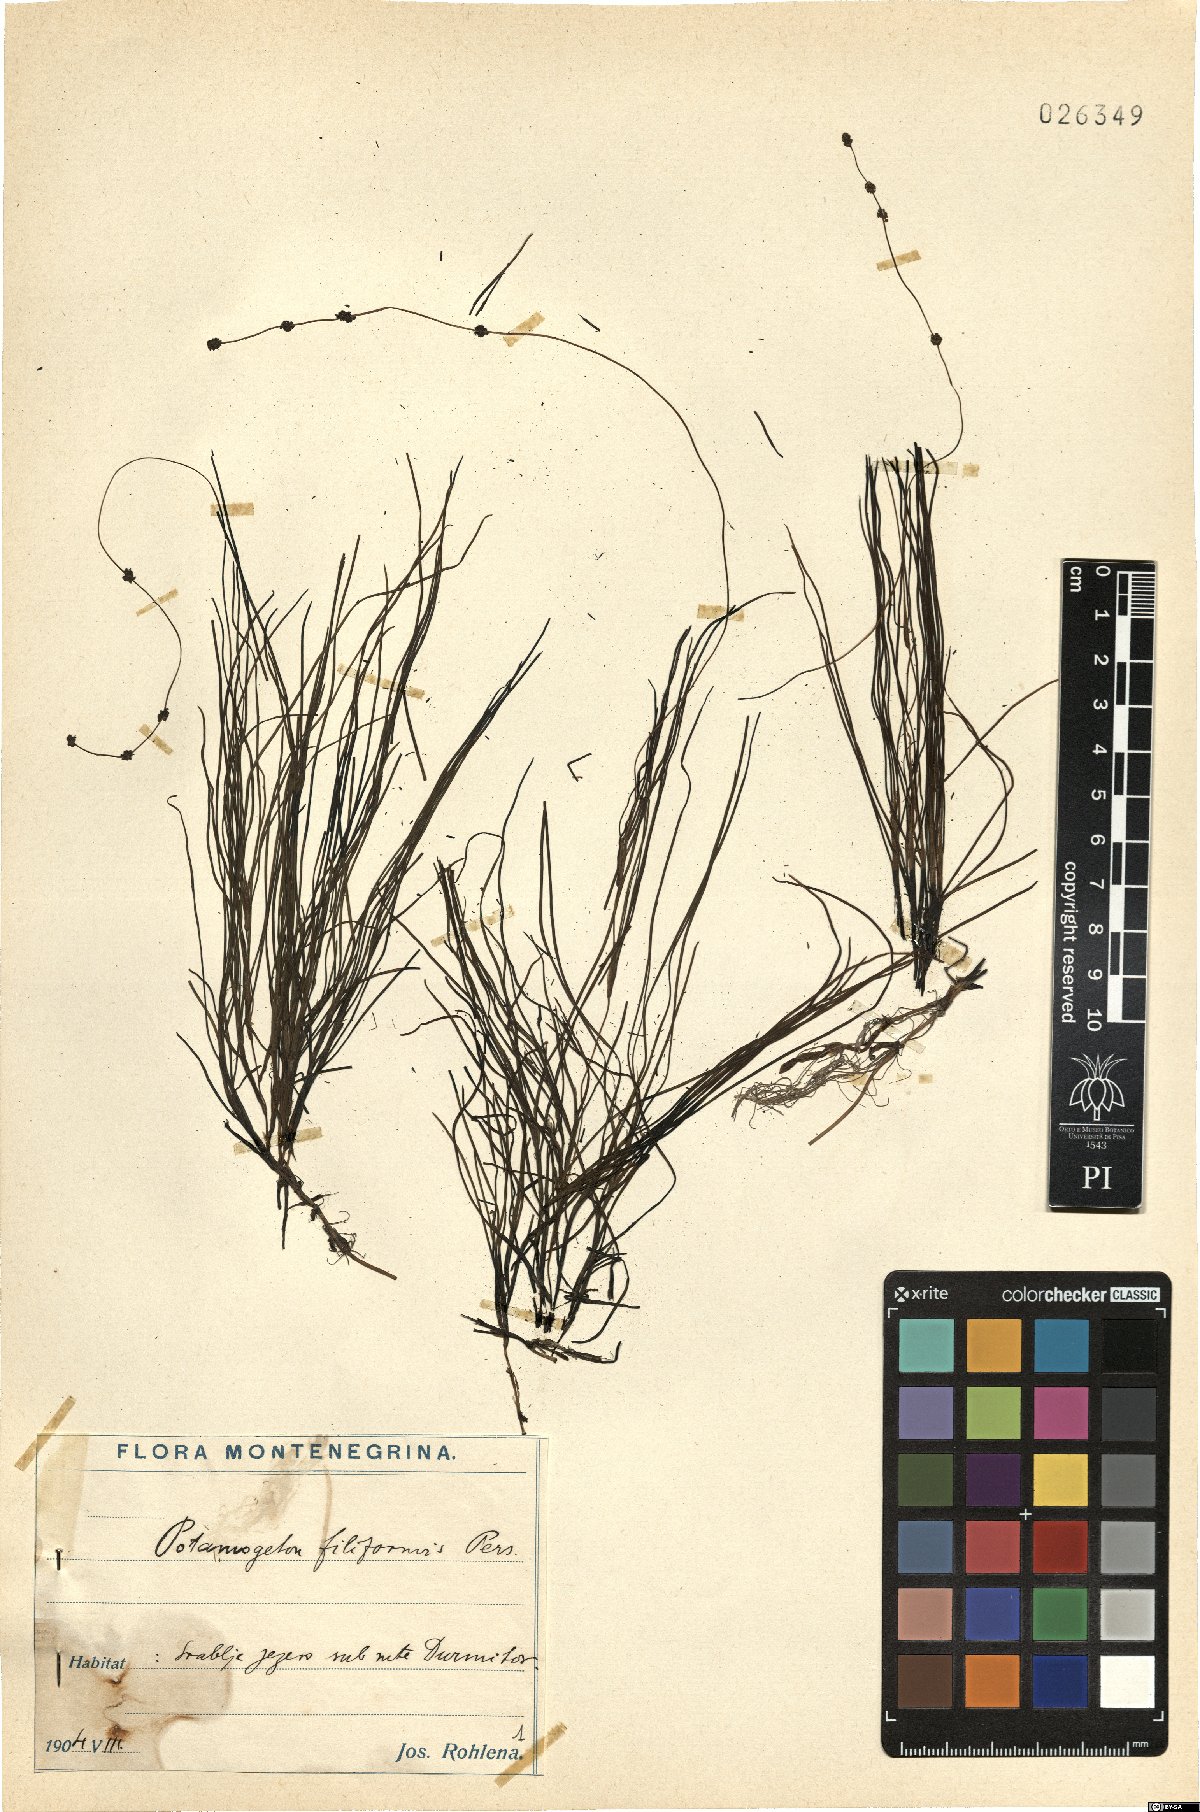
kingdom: Plantae
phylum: Tracheophyta
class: Liliopsida
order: Alismatales
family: Potamogetonaceae
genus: Stuckenia
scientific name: Stuckenia filiformis
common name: Alpine thread-leaved pondweed
